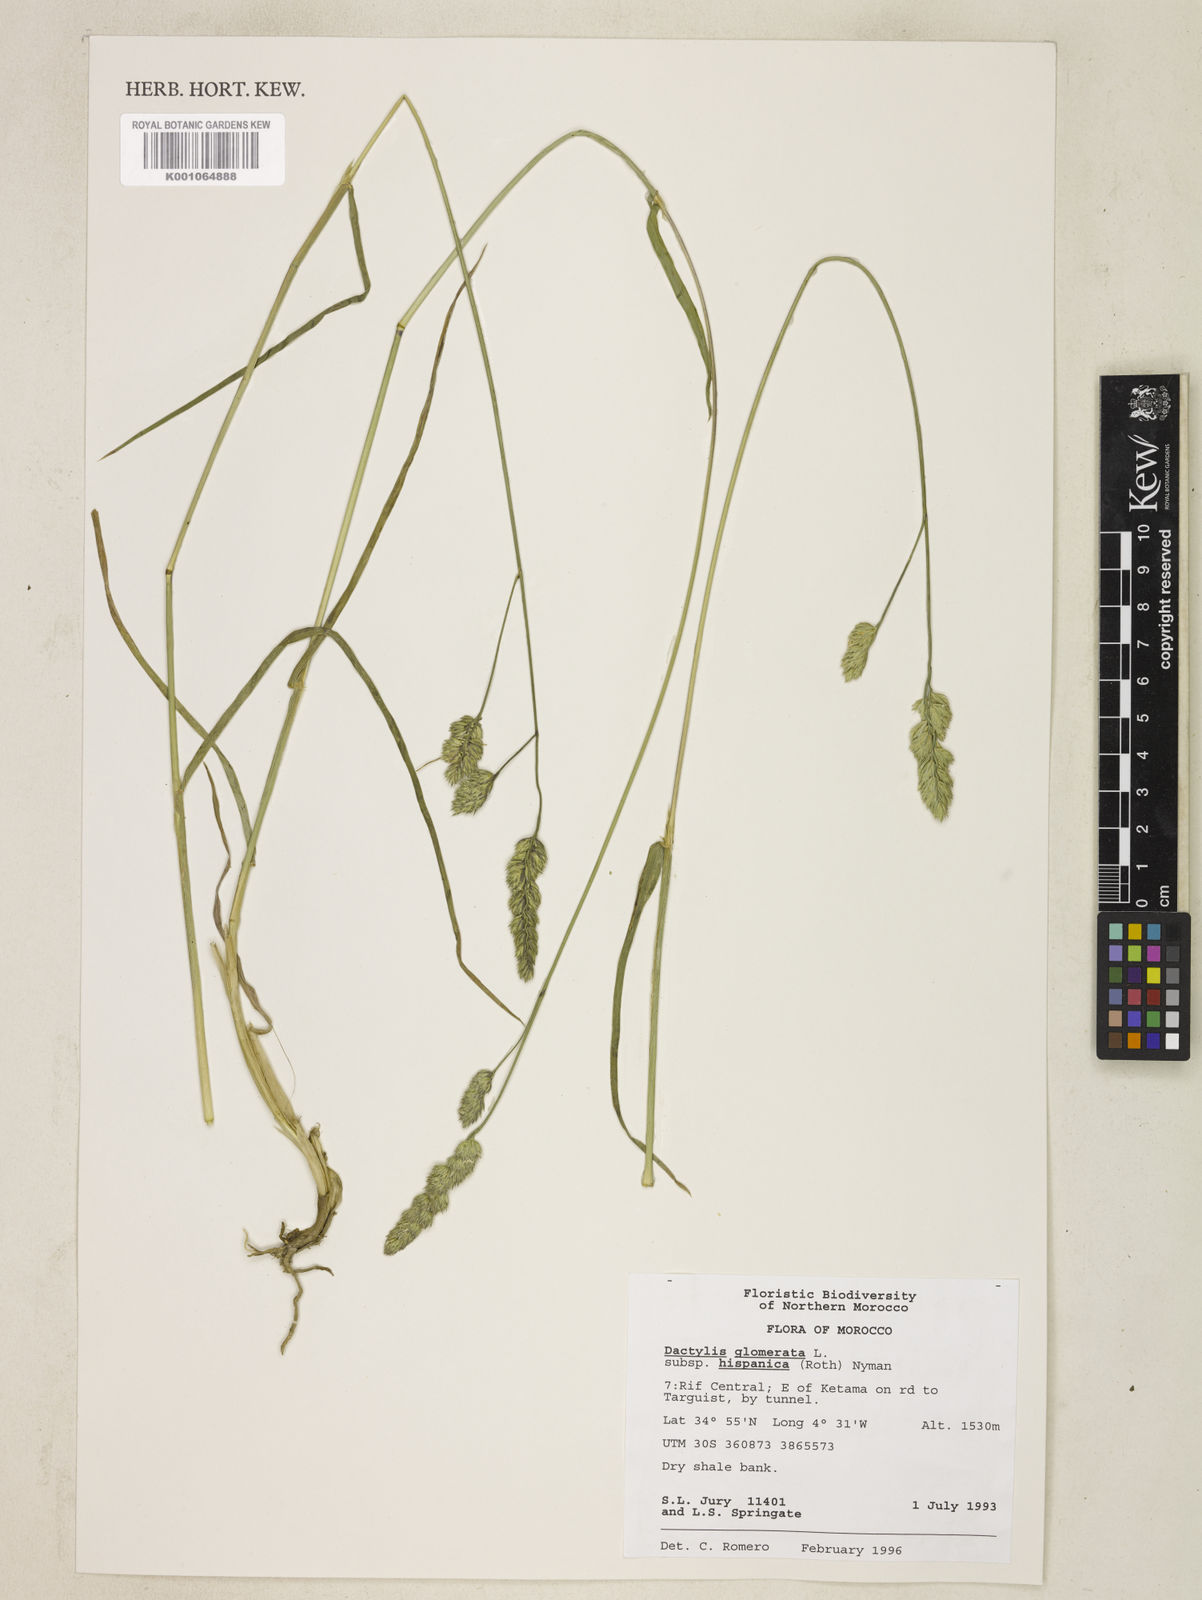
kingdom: Plantae
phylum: Tracheophyta
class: Liliopsida
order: Poales
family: Poaceae
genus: Dactylis
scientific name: Dactylis glomerata
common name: Orchardgrass
